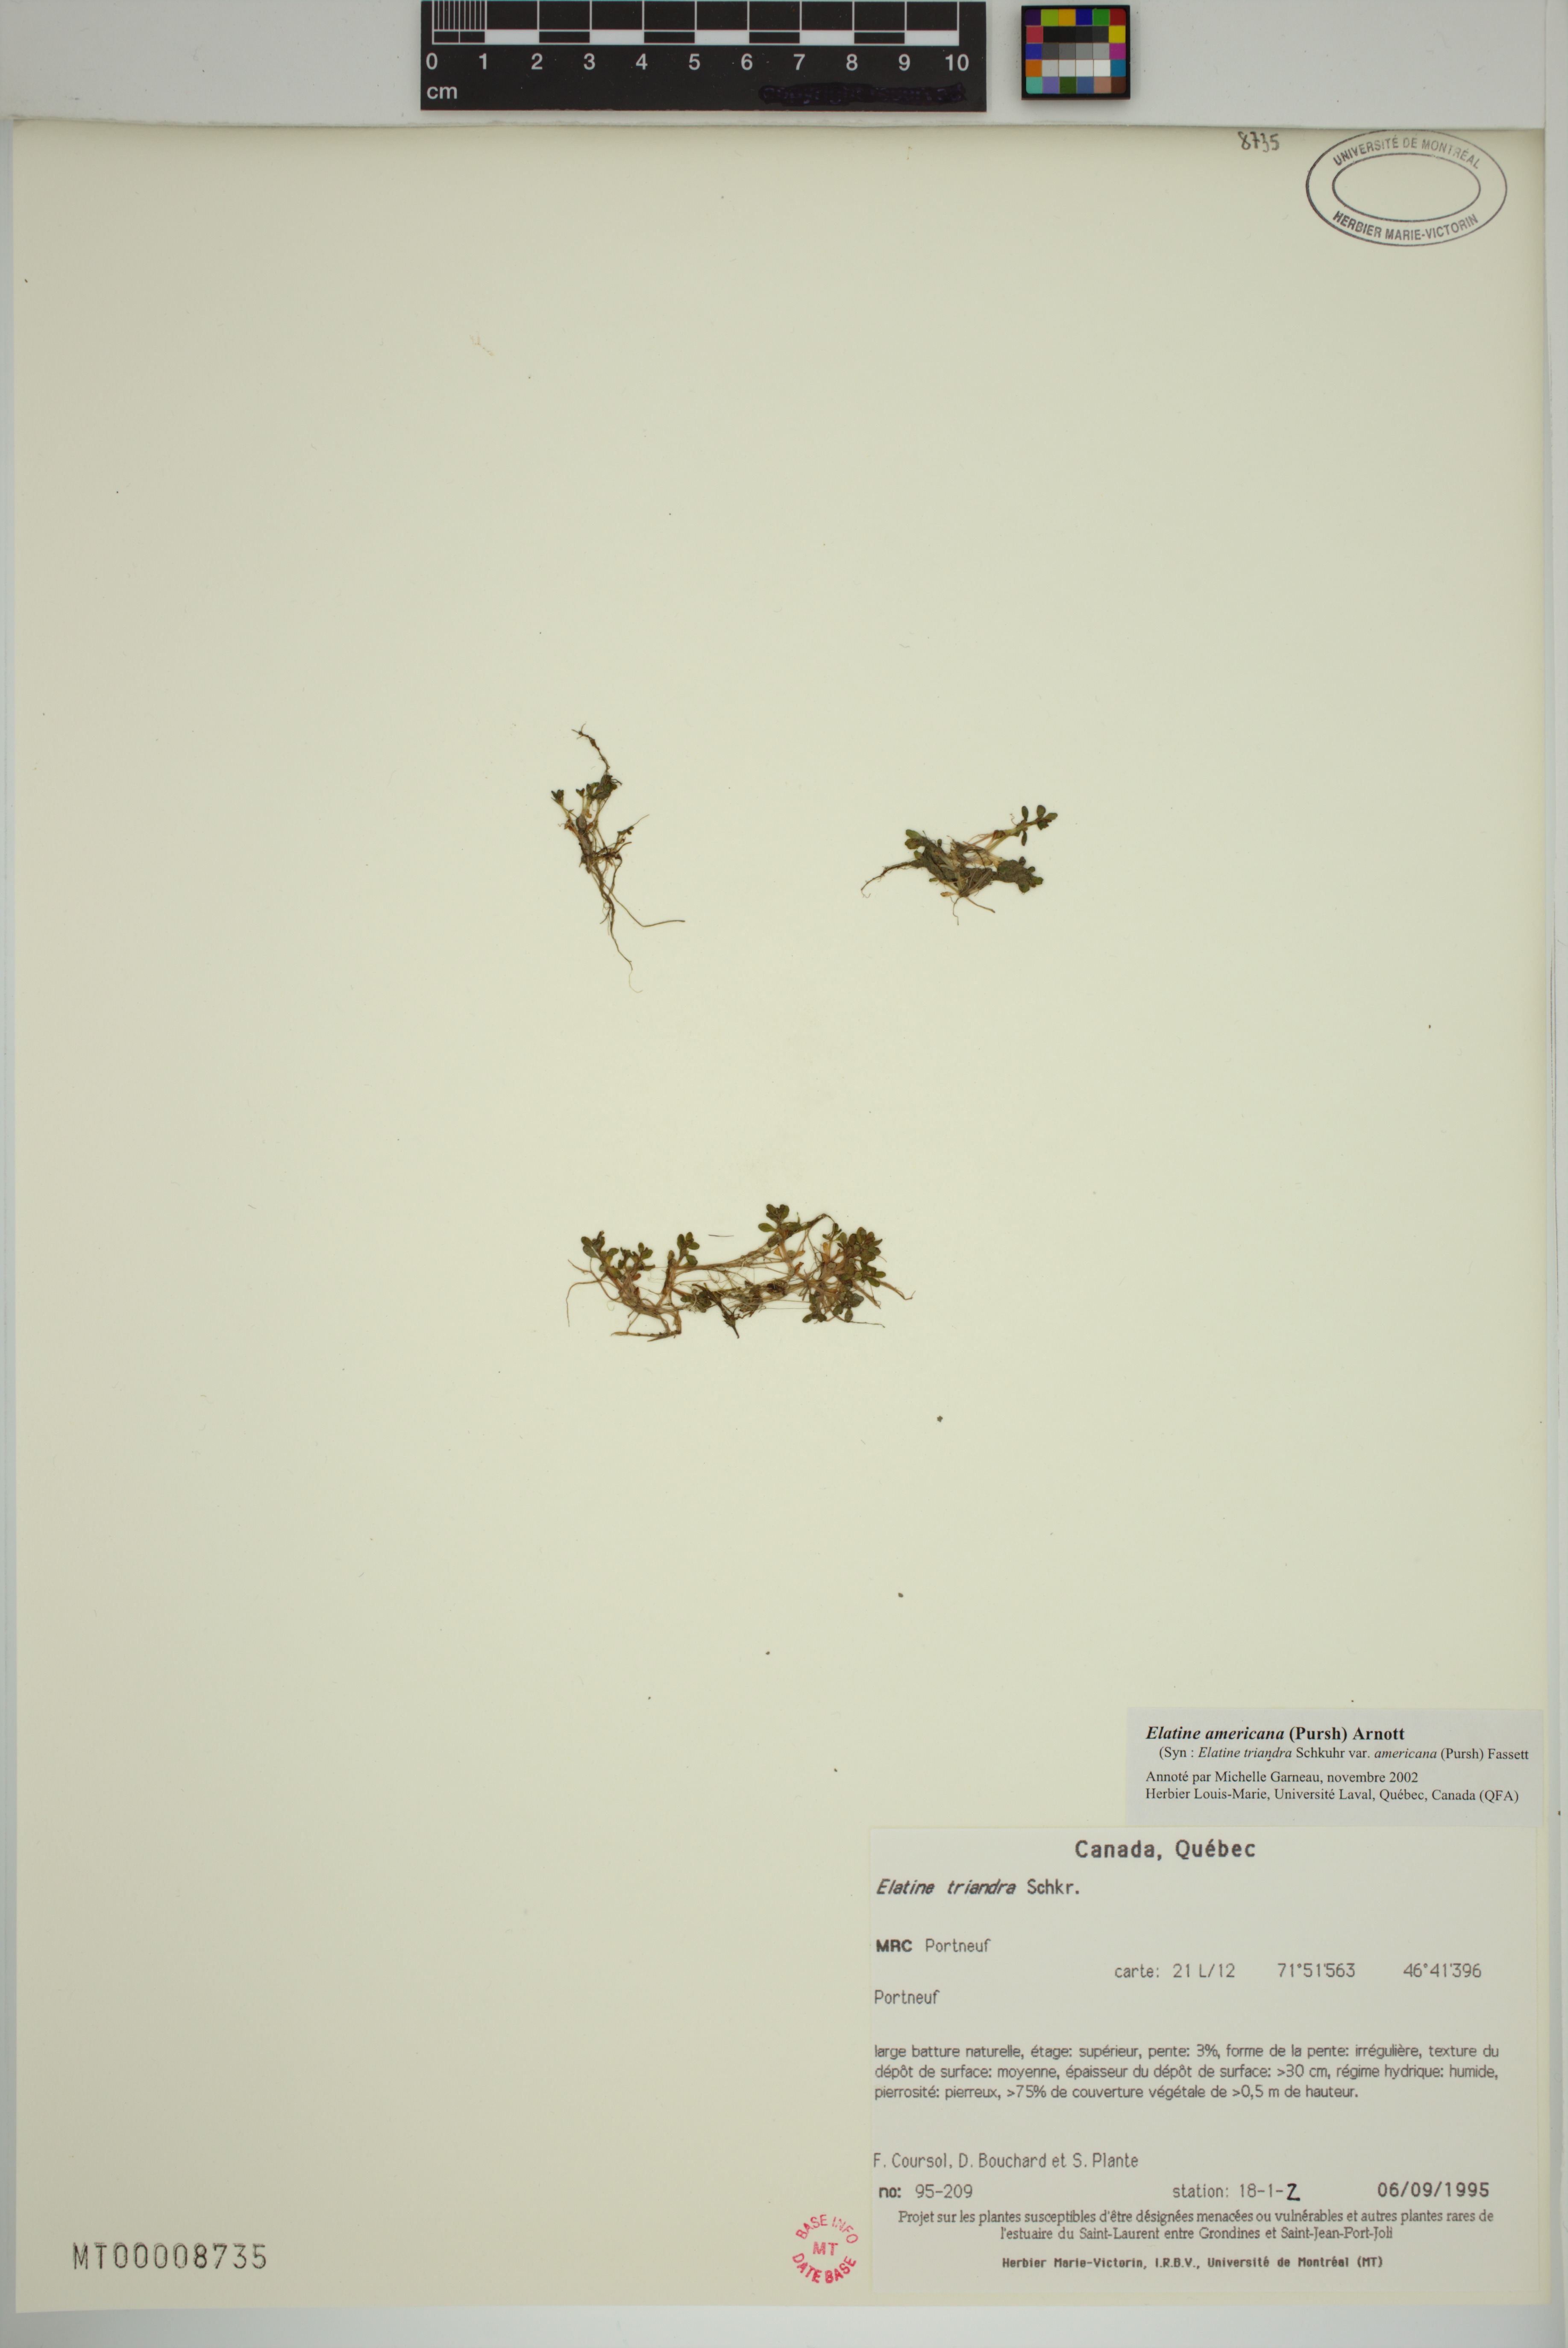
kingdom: Plantae
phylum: Tracheophyta
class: Magnoliopsida
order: Malpighiales
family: Elatinaceae
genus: Elatine
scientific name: Elatine americana
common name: American waterwort
